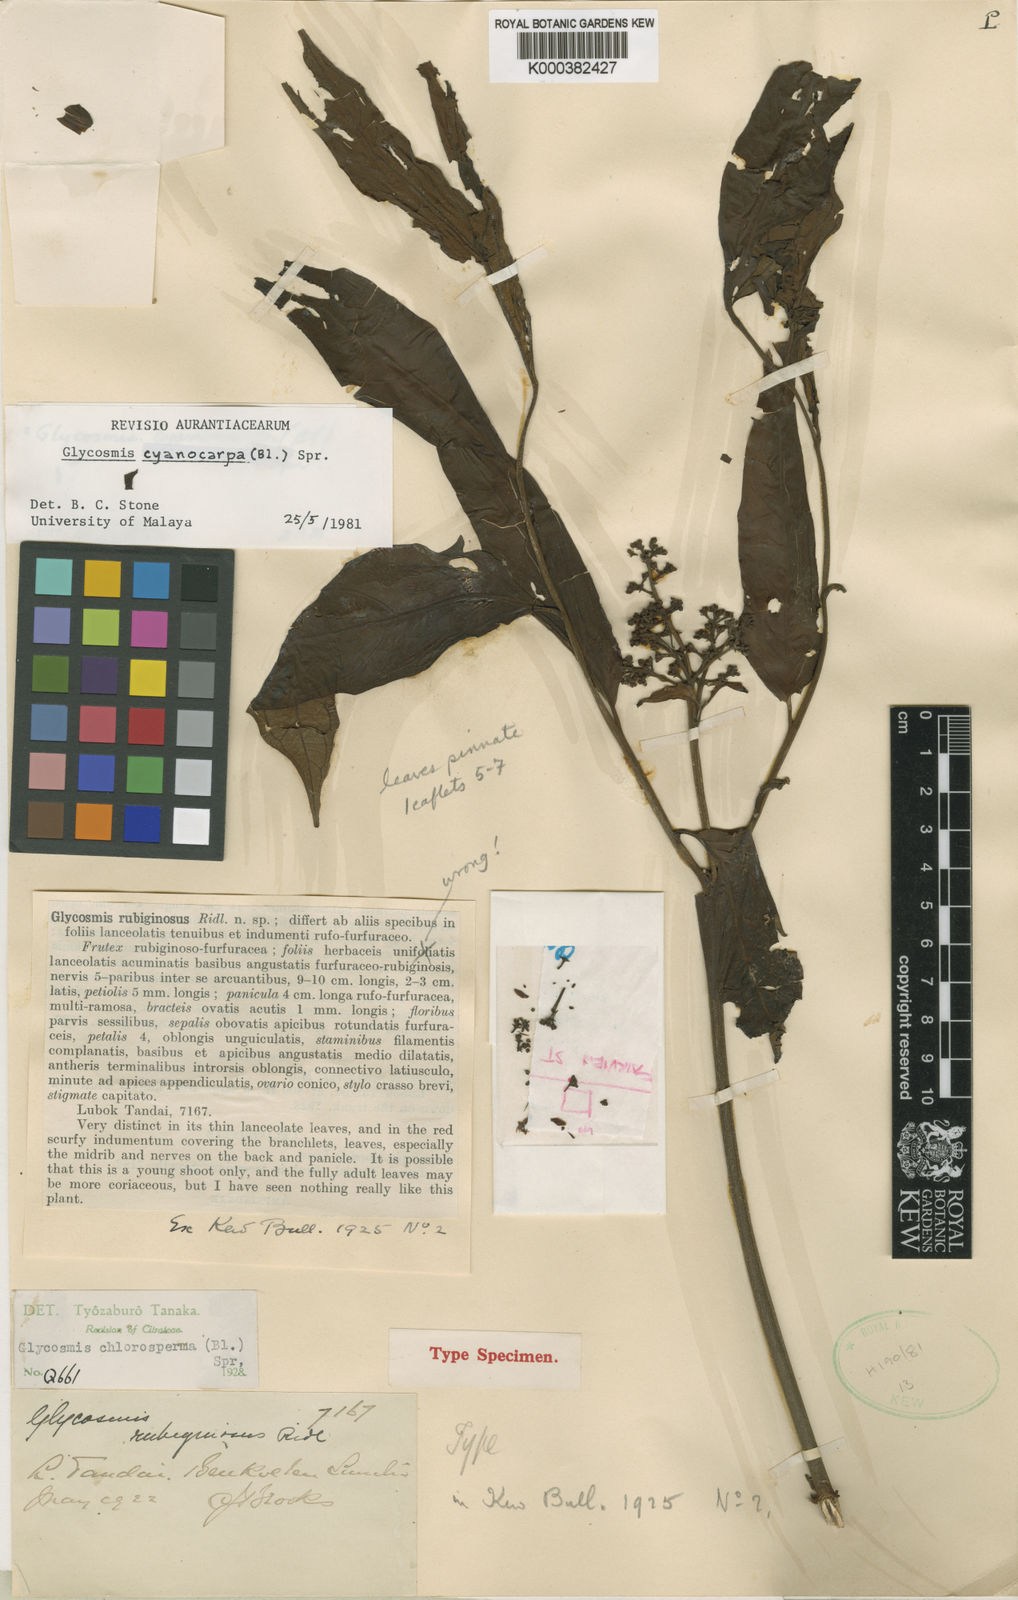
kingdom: Plantae
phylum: Tracheophyta
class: Magnoliopsida
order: Sapindales
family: Rutaceae
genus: Glycosmis
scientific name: Glycosmis cyanocarpa
